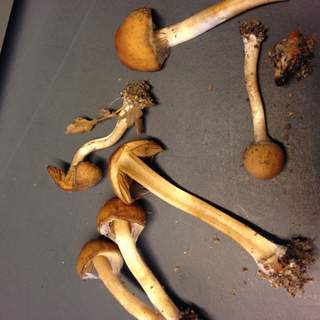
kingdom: Fungi
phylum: Basidiomycota
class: Agaricomycetes
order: Agaricales
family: Psathyrellaceae
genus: Psathyrella
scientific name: Psathyrella piluliformis
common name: lysstokket mørkhat
